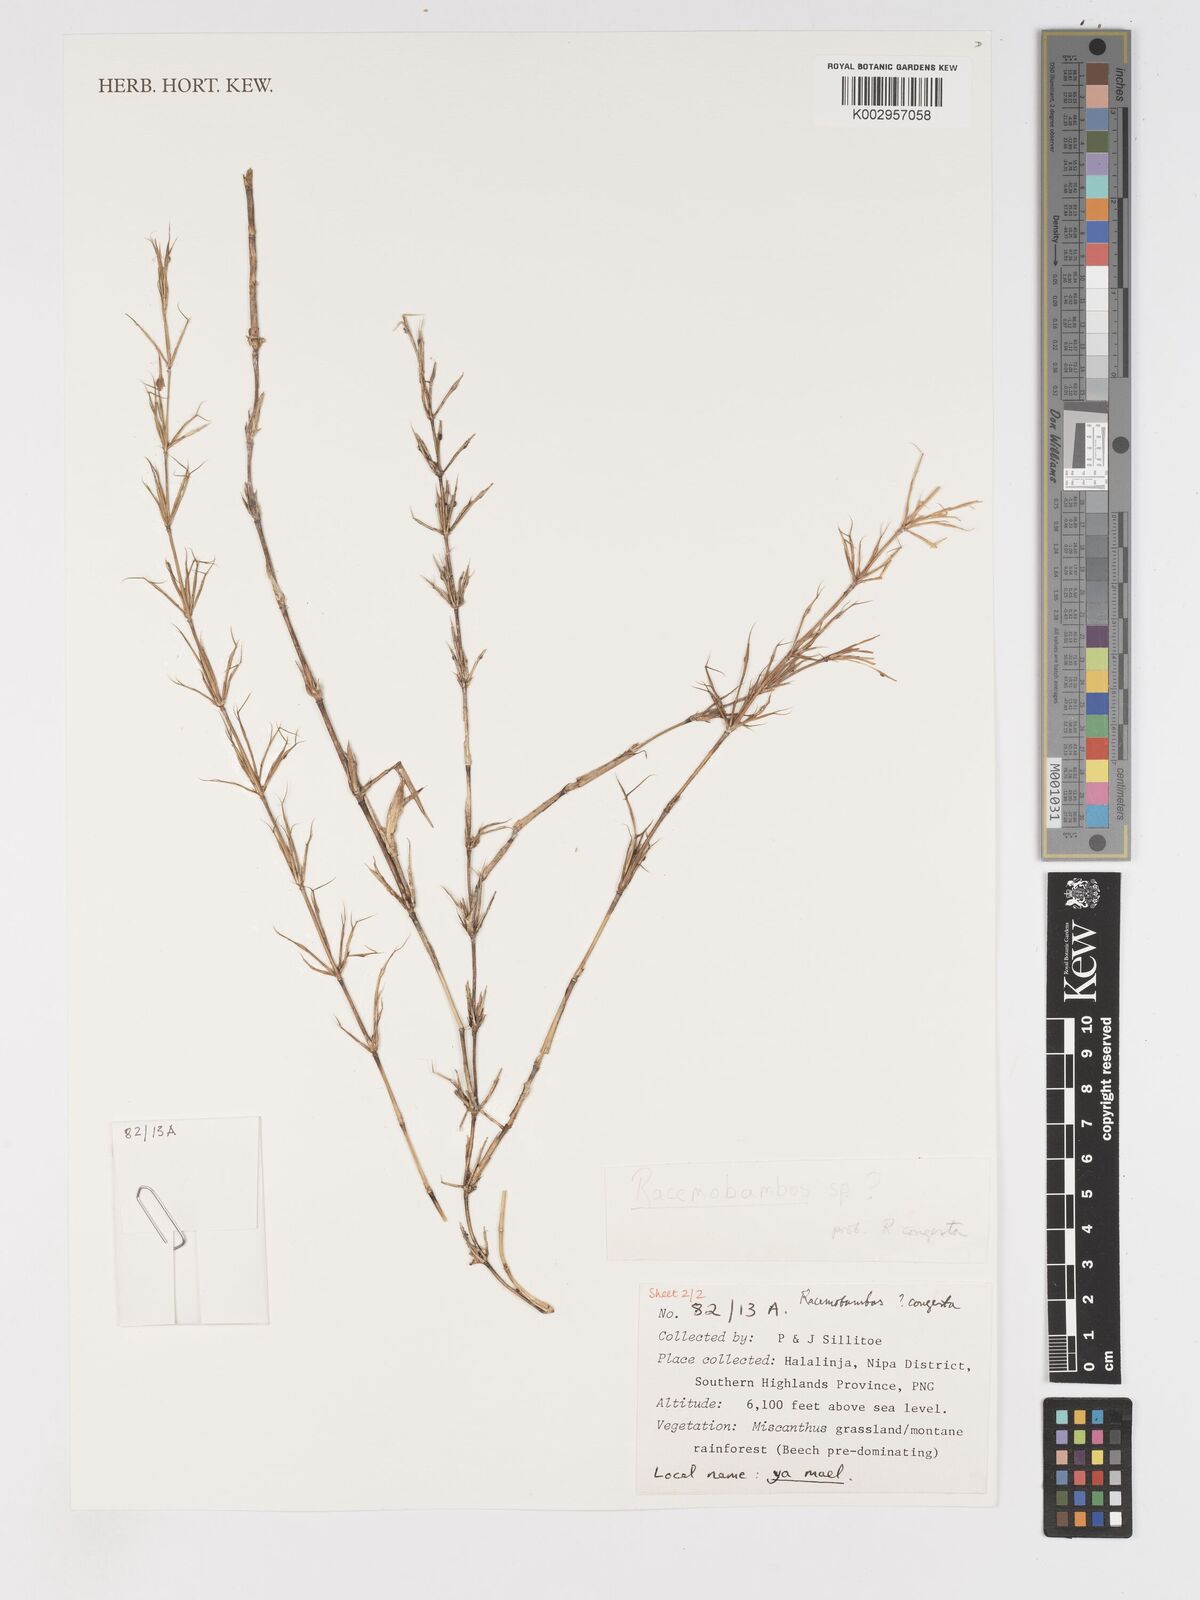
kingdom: Plantae
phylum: Tracheophyta
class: Liliopsida
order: Poales
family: Poaceae
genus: Racemobambos
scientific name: Racemobambos
